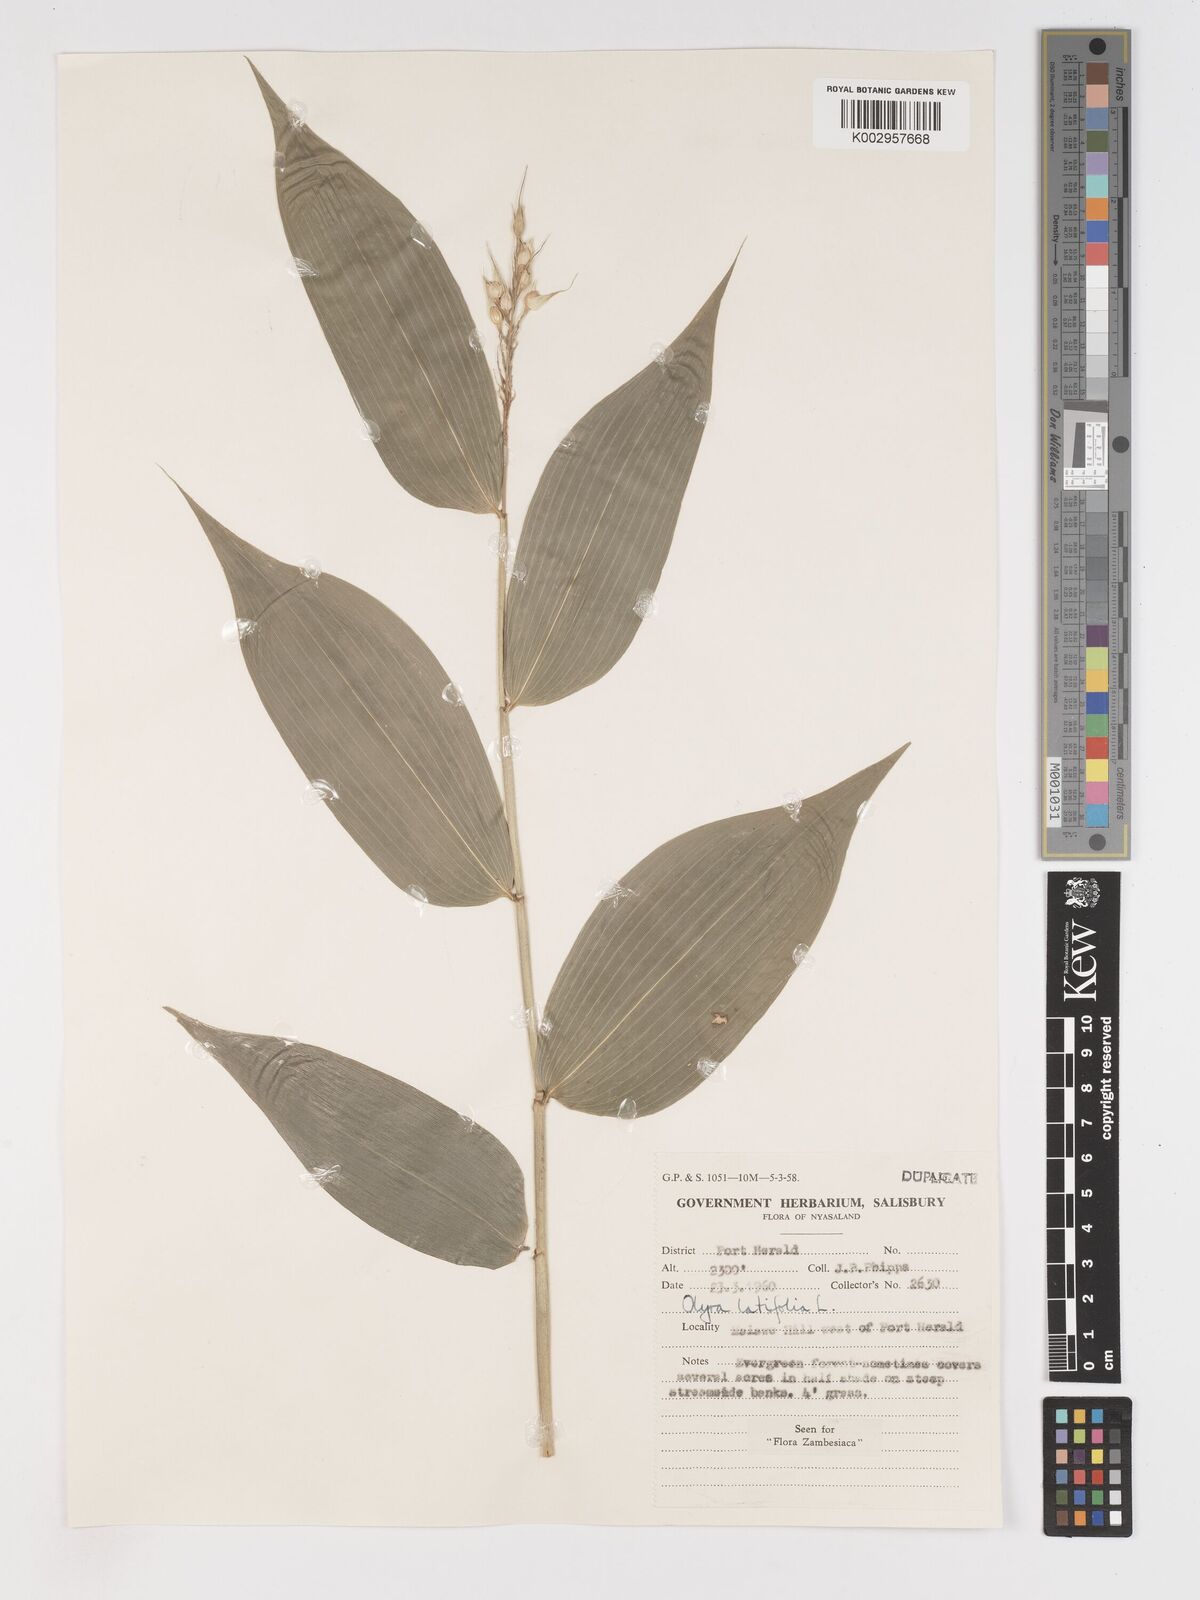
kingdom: Plantae
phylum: Tracheophyta
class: Liliopsida
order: Poales
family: Poaceae
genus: Olyra
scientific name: Olyra latifolia
